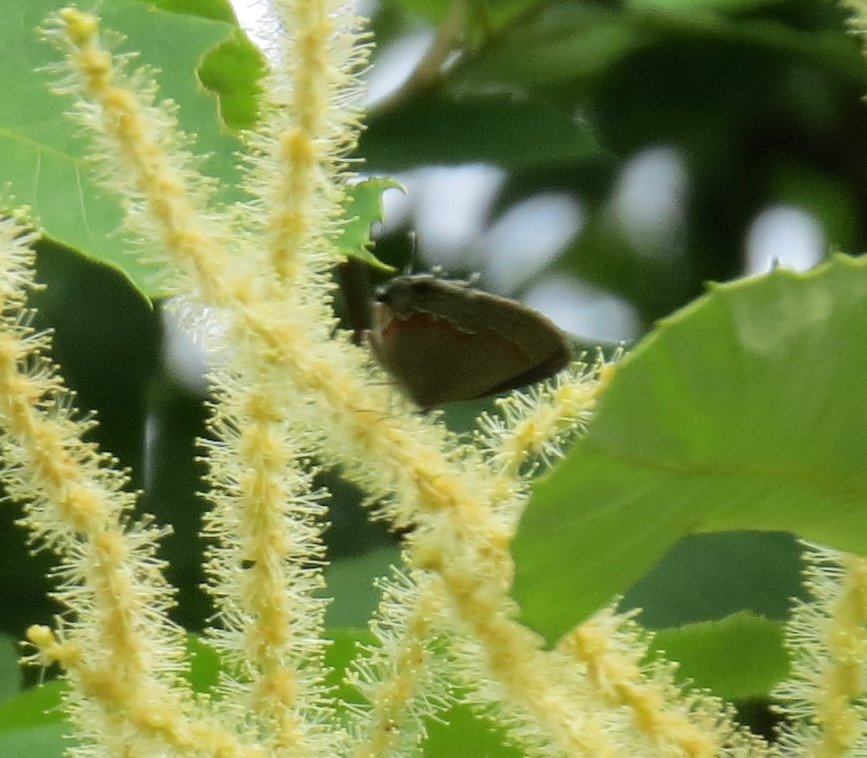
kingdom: Animalia
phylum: Arthropoda
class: Insecta
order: Lepidoptera
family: Lycaenidae
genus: Calycopis
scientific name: Calycopis cecrops
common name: Red-banded Hairstreak
